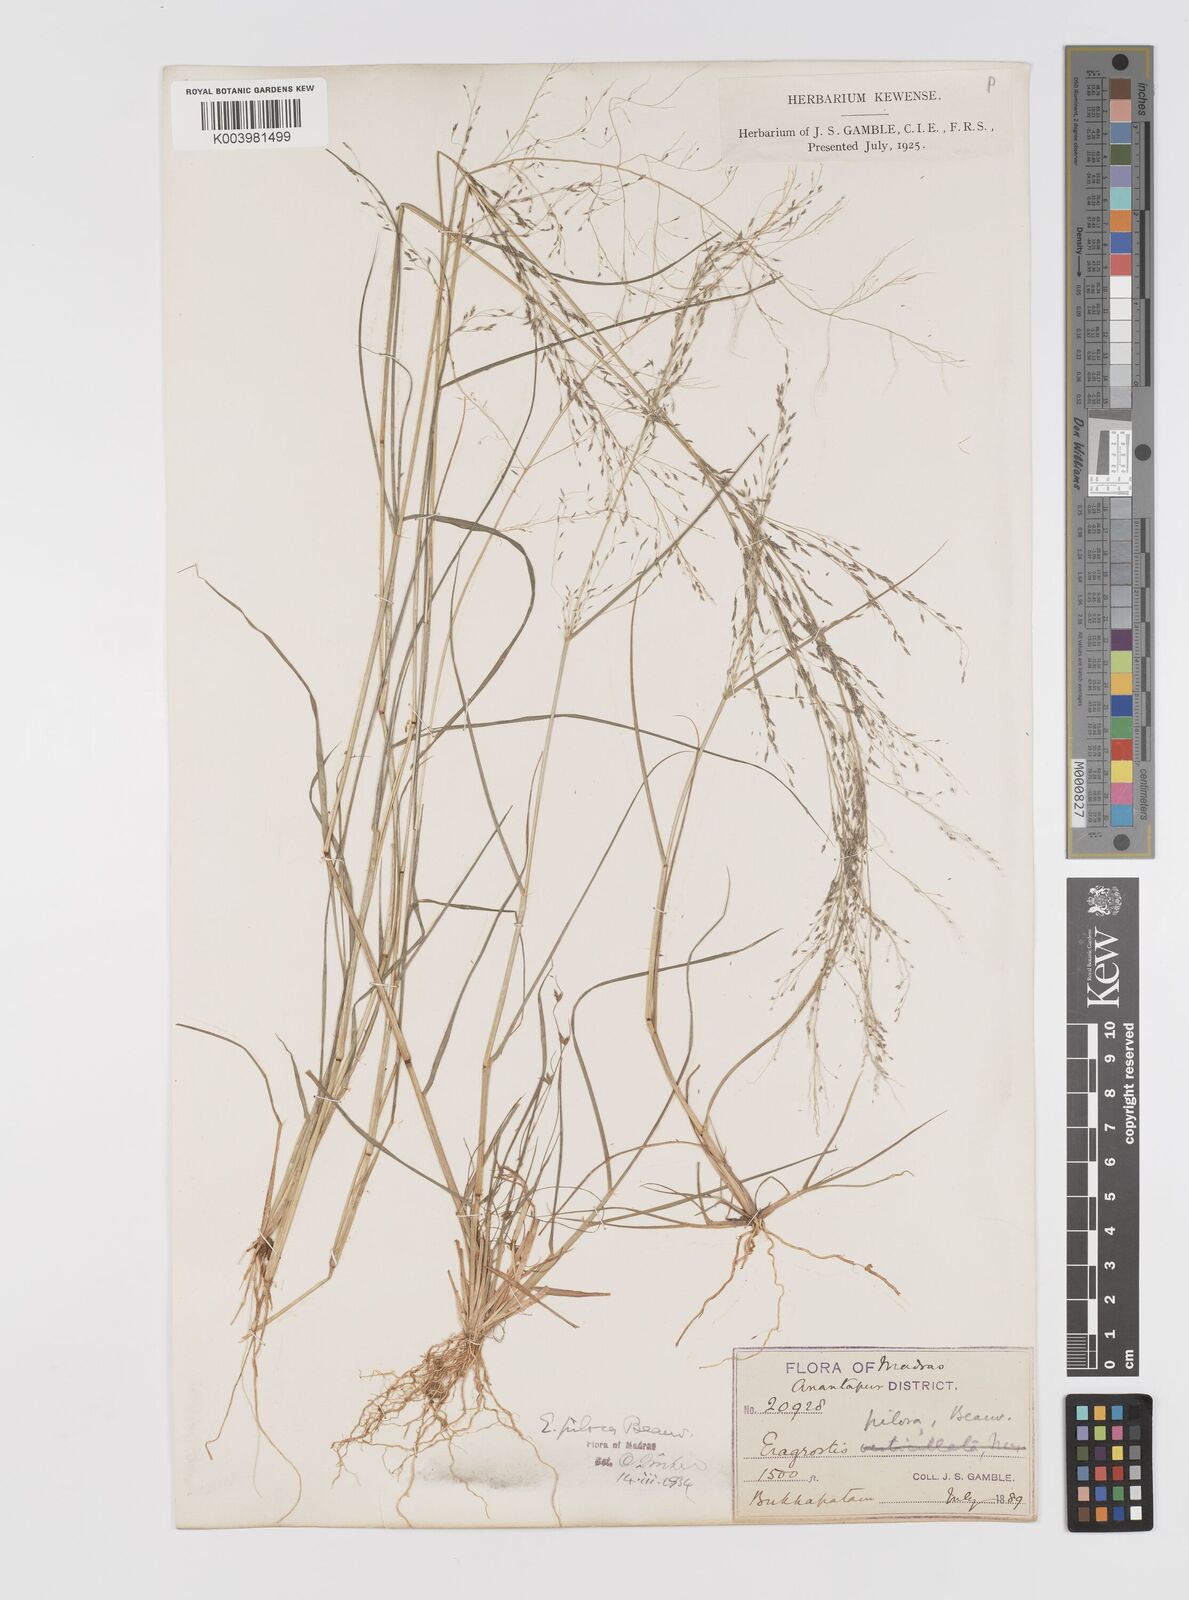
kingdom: Plantae
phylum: Tracheophyta
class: Liliopsida
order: Poales
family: Poaceae
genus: Eragrostis
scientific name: Eragrostis pilosa
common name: Indian lovegrass
